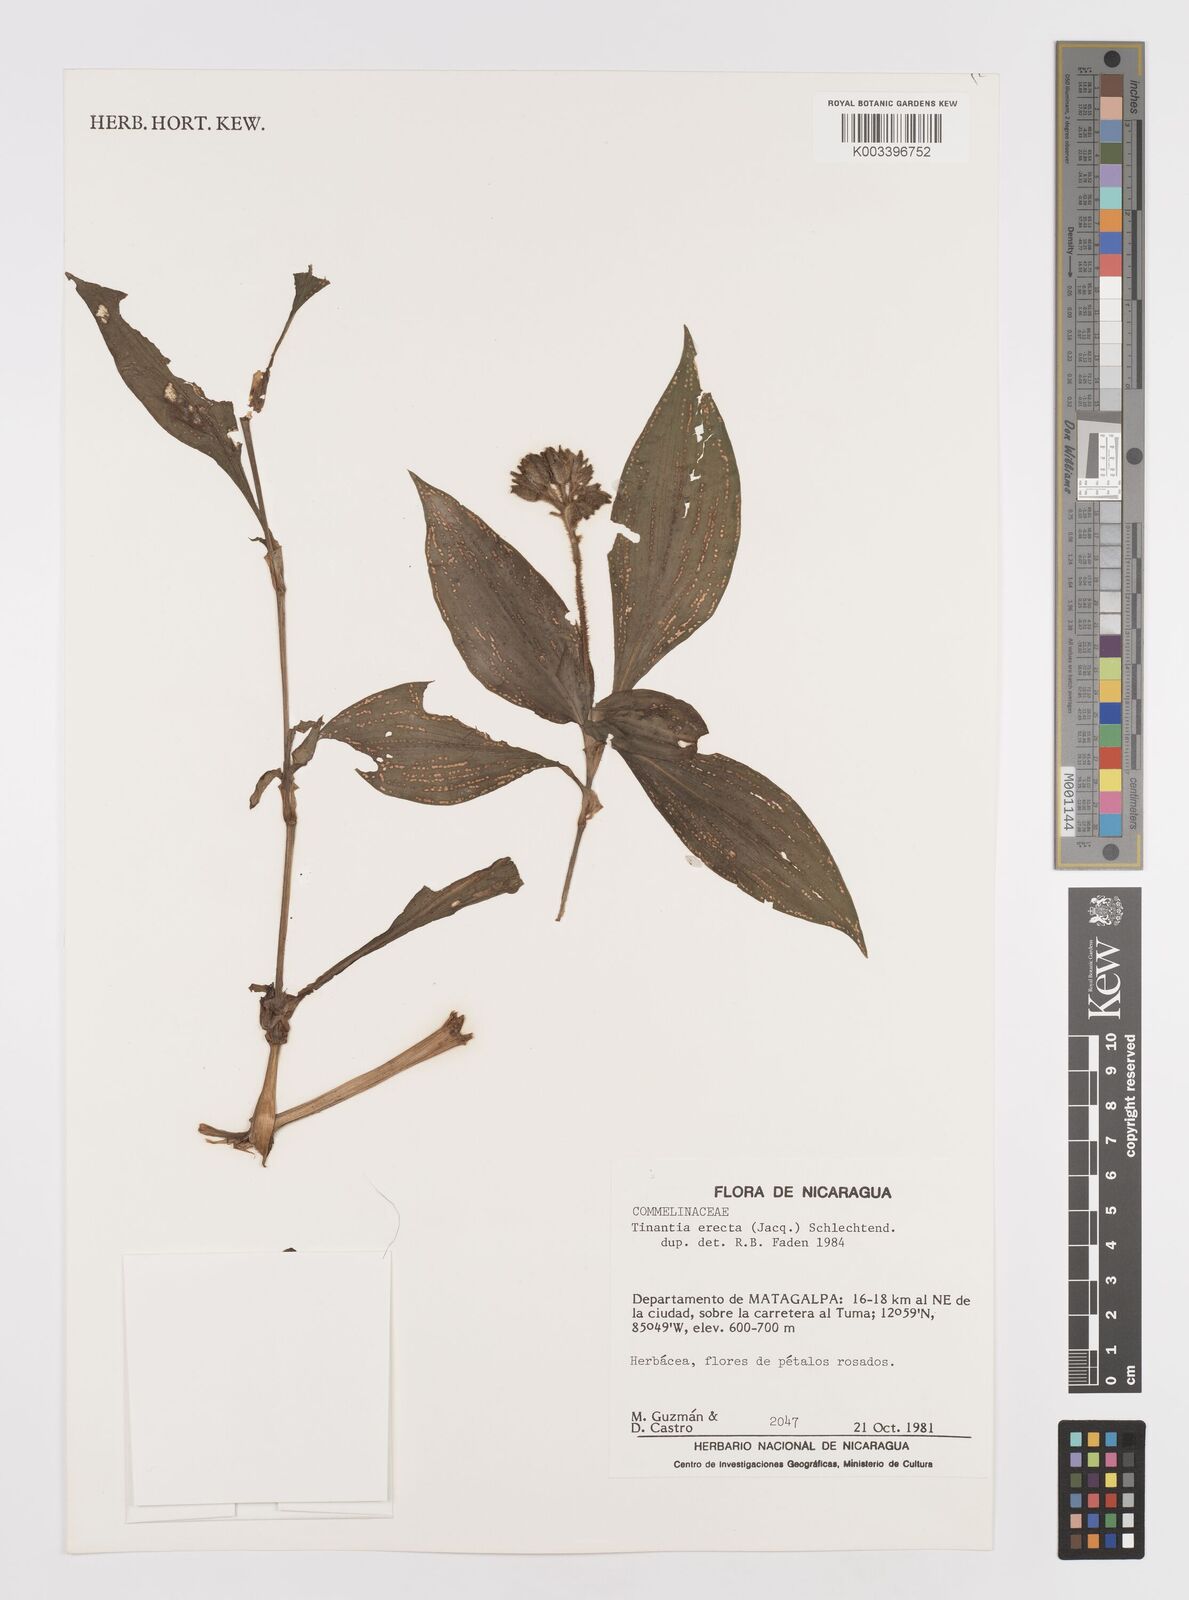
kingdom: Plantae
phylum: Tracheophyta
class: Liliopsida
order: Commelinales
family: Commelinaceae
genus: Tinantia
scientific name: Tinantia erecta
